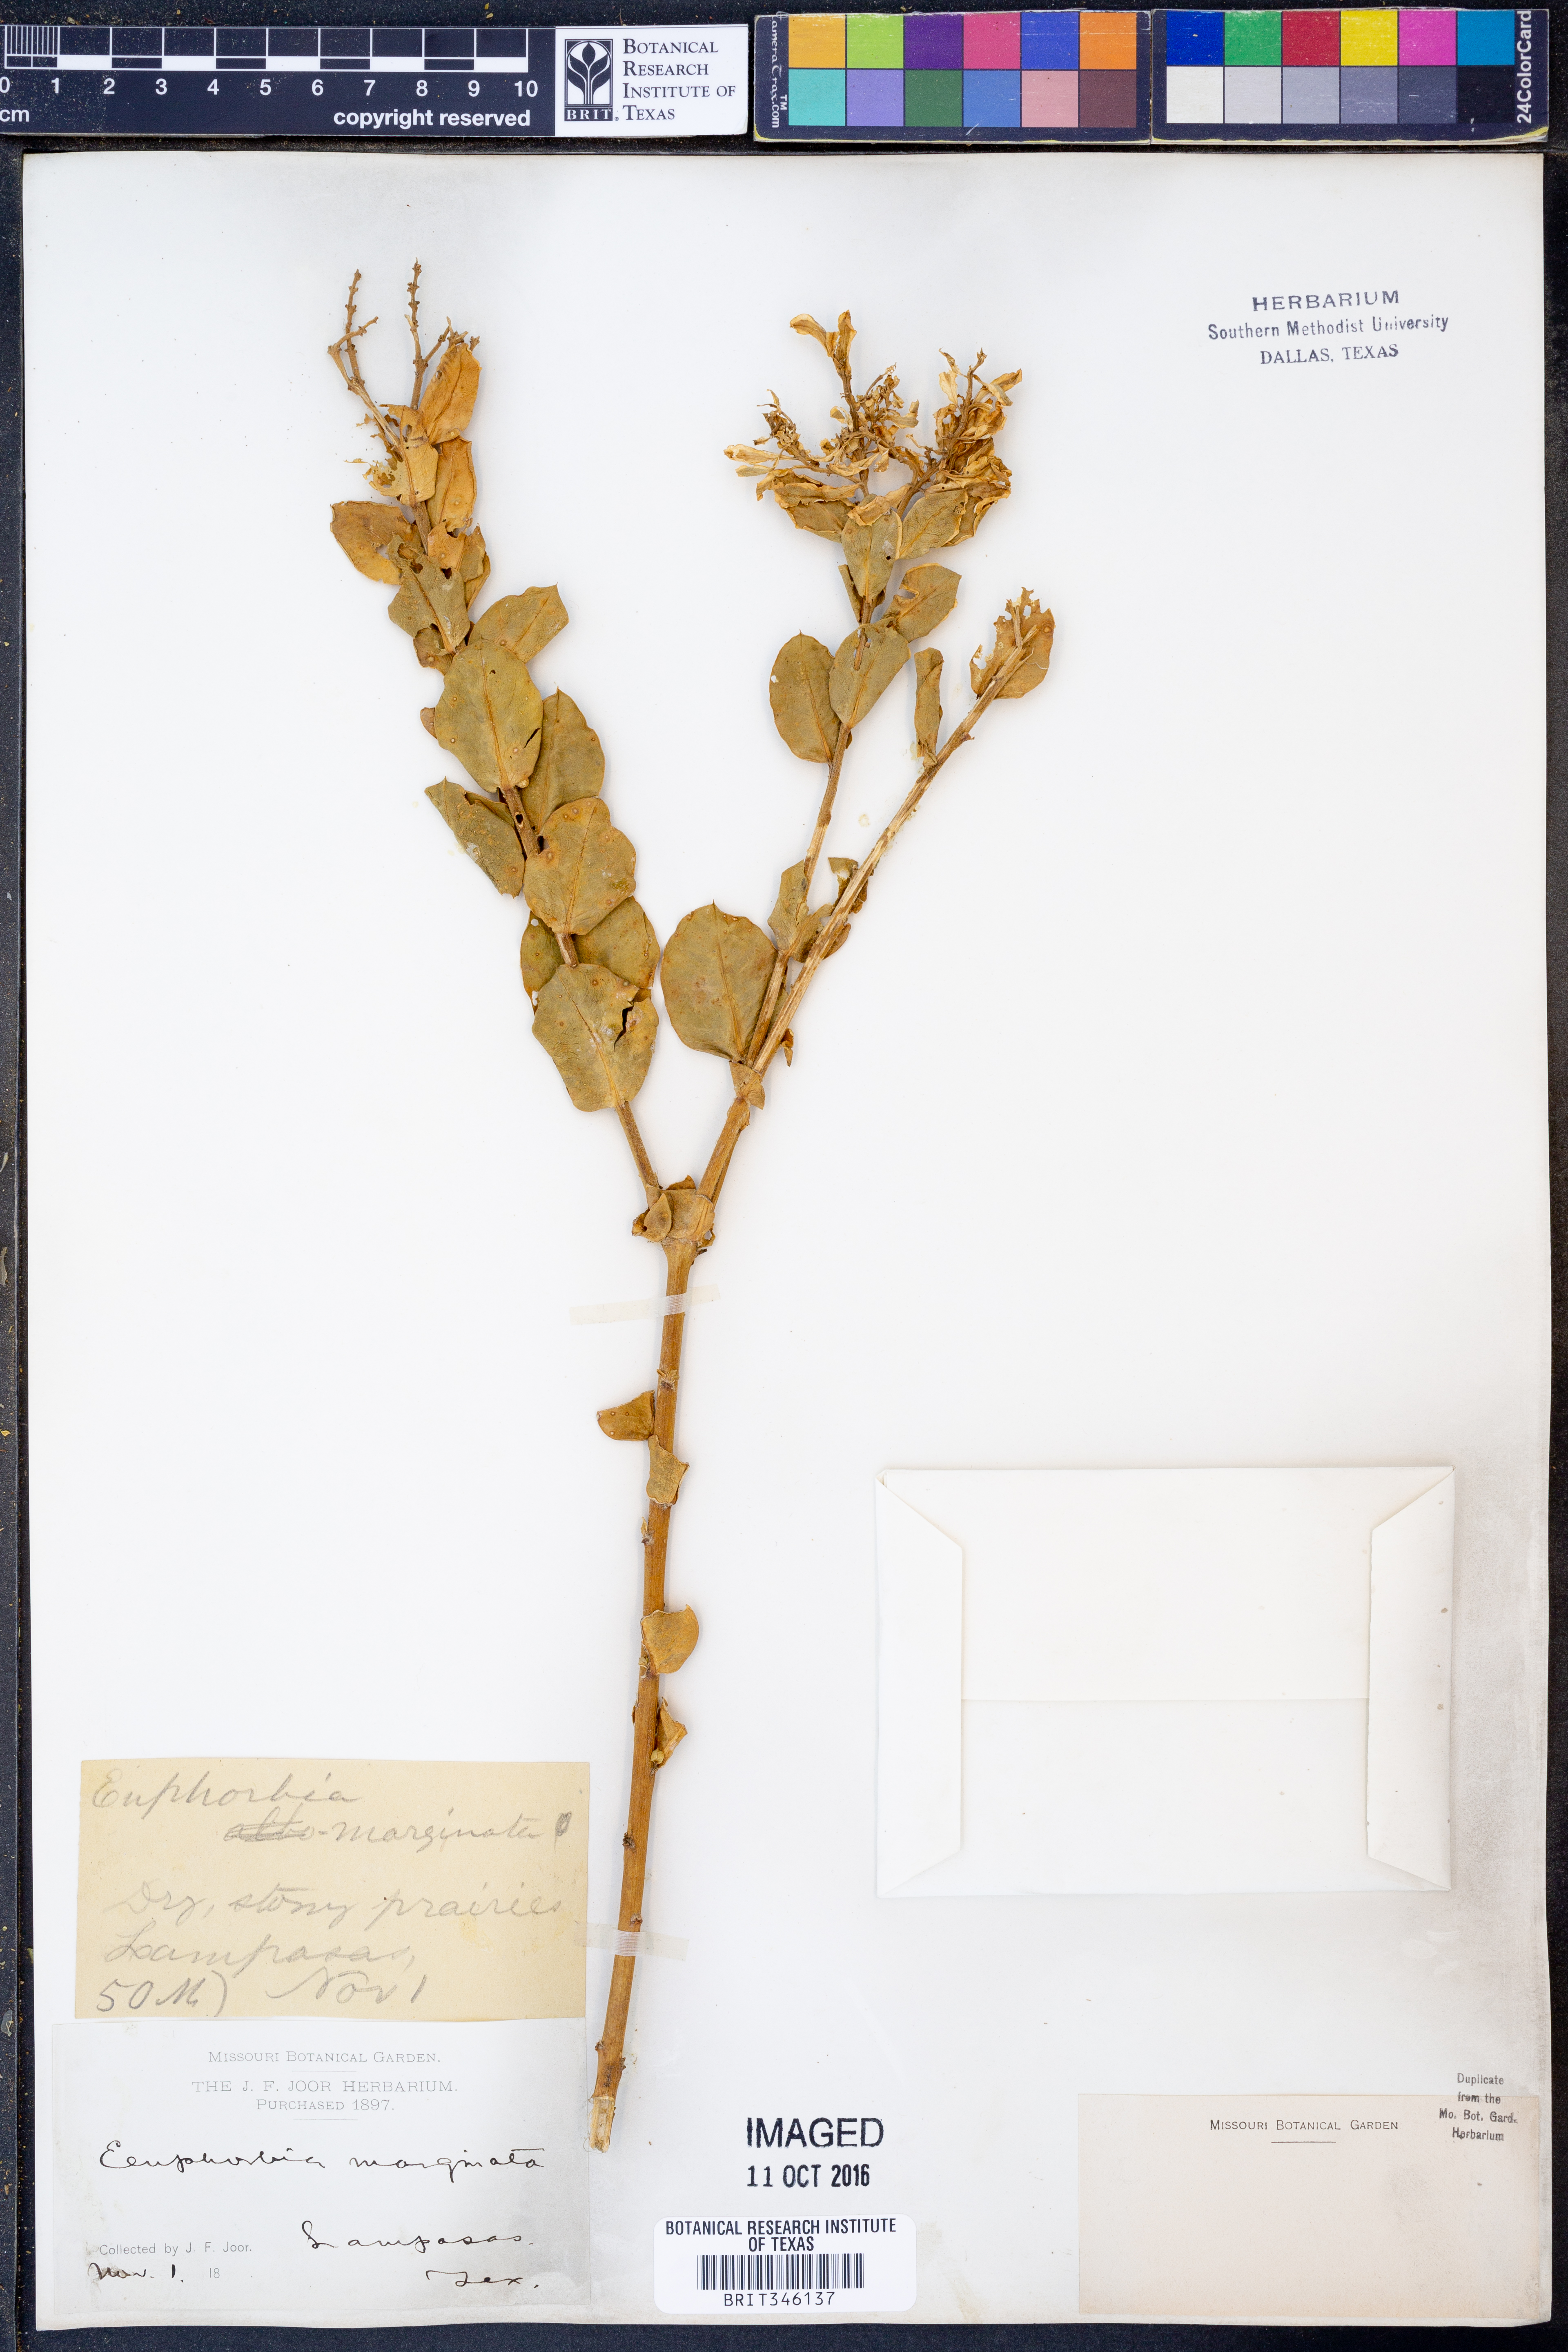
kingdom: Plantae
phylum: Tracheophyta
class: Magnoliopsida
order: Malpighiales
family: Euphorbiaceae
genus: Euphorbia
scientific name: Euphorbia marginata
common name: Ghostweed
